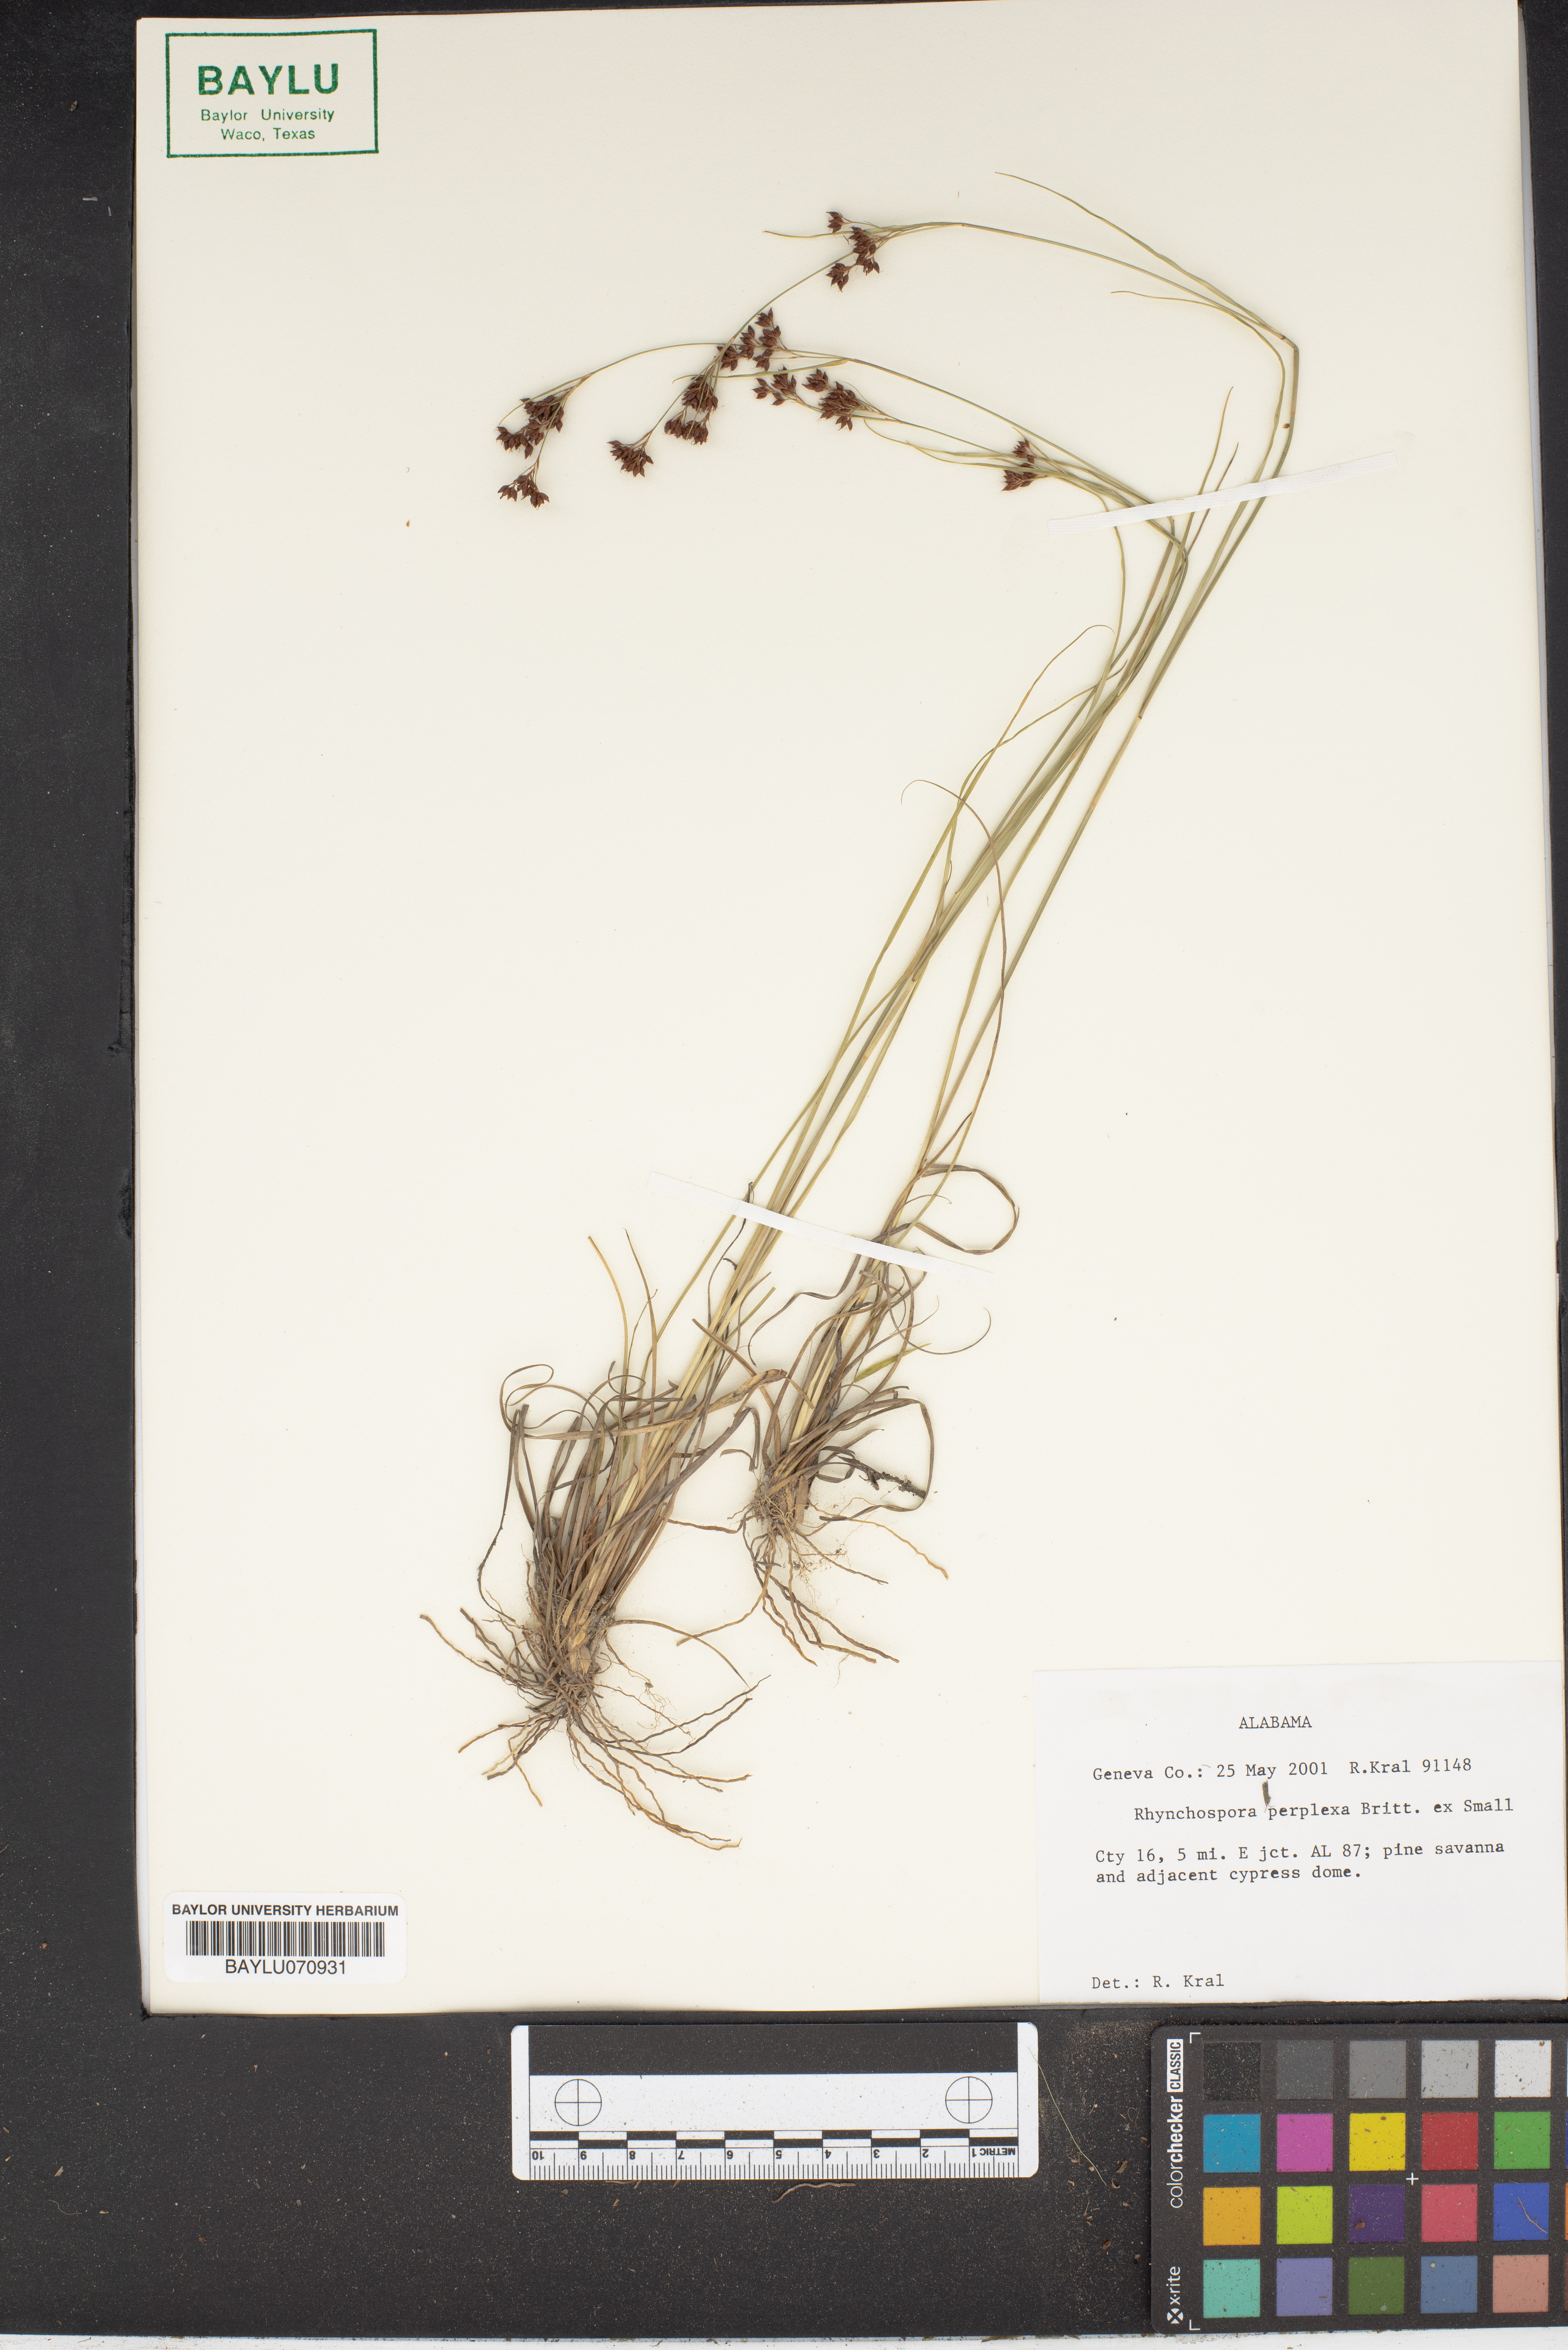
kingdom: Plantae
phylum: Tracheophyta
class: Liliopsida
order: Poales
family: Cyperaceae
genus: Rhynchospora
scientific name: Rhynchospora perplexa
